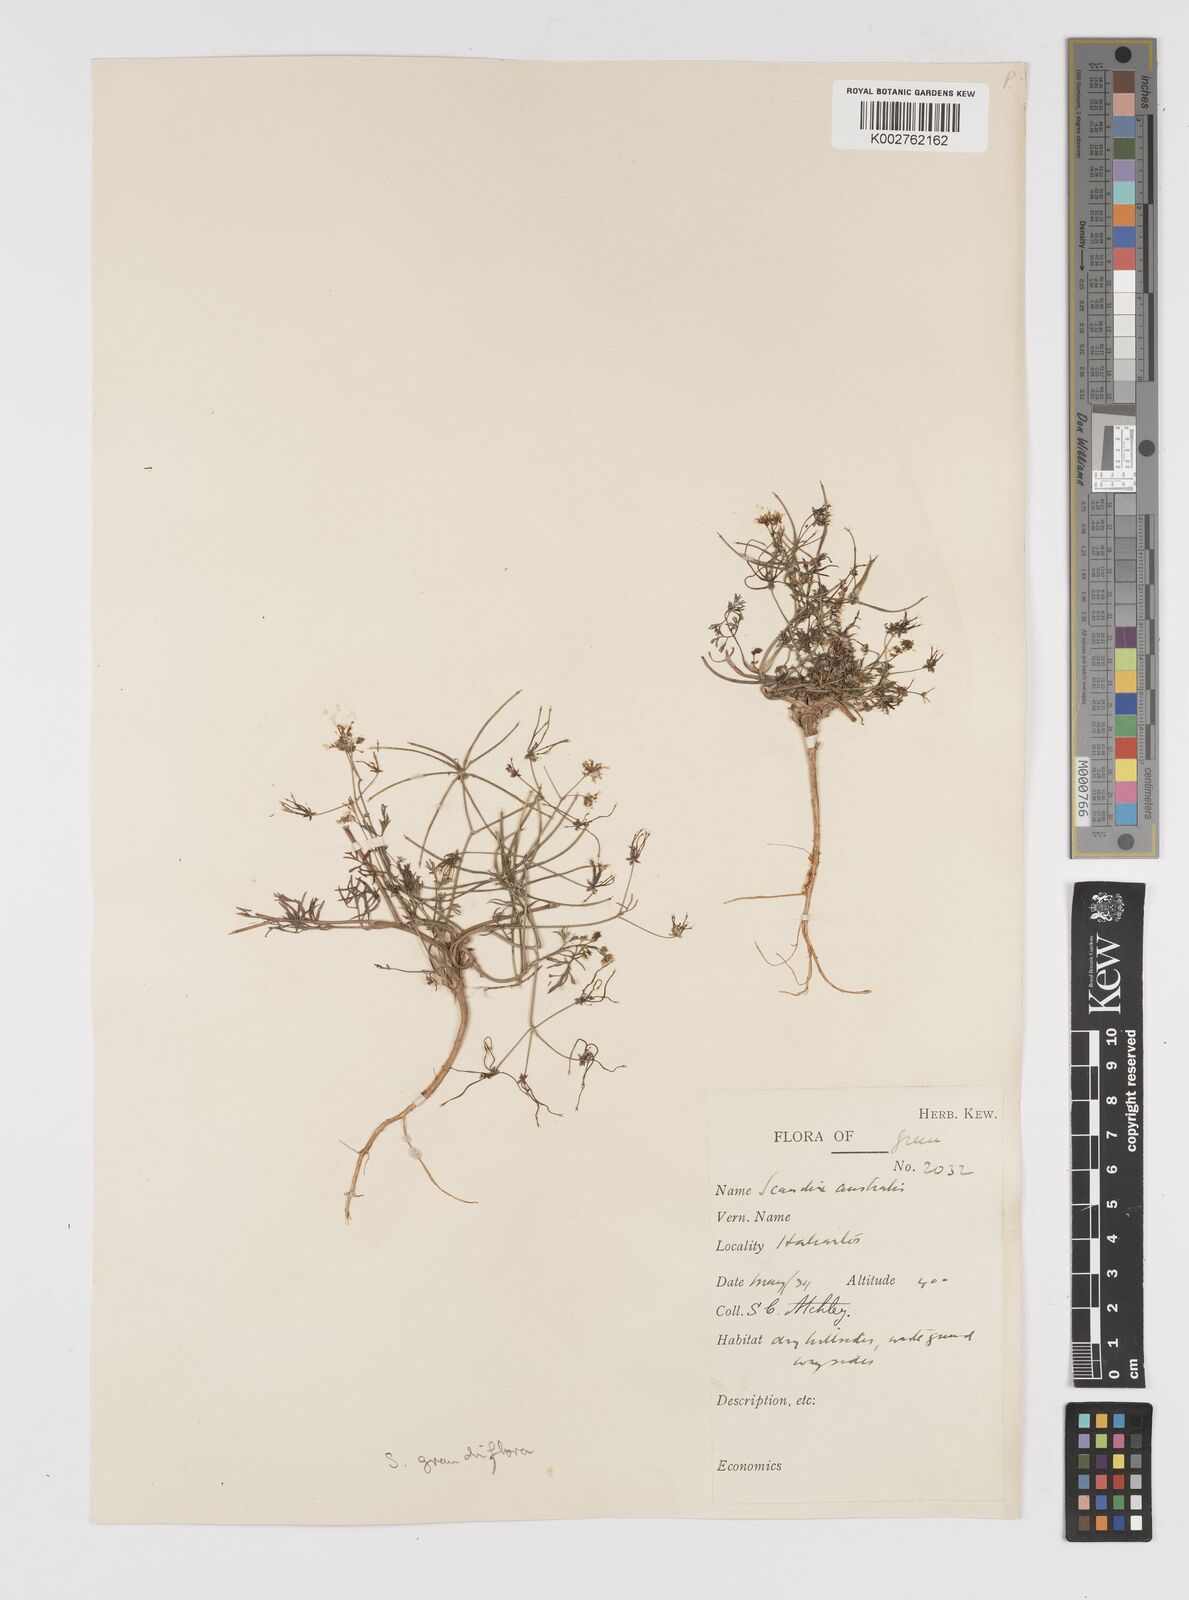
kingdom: Plantae
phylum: Tracheophyta
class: Magnoliopsida
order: Apiales
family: Apiaceae
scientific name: Apiaceae
